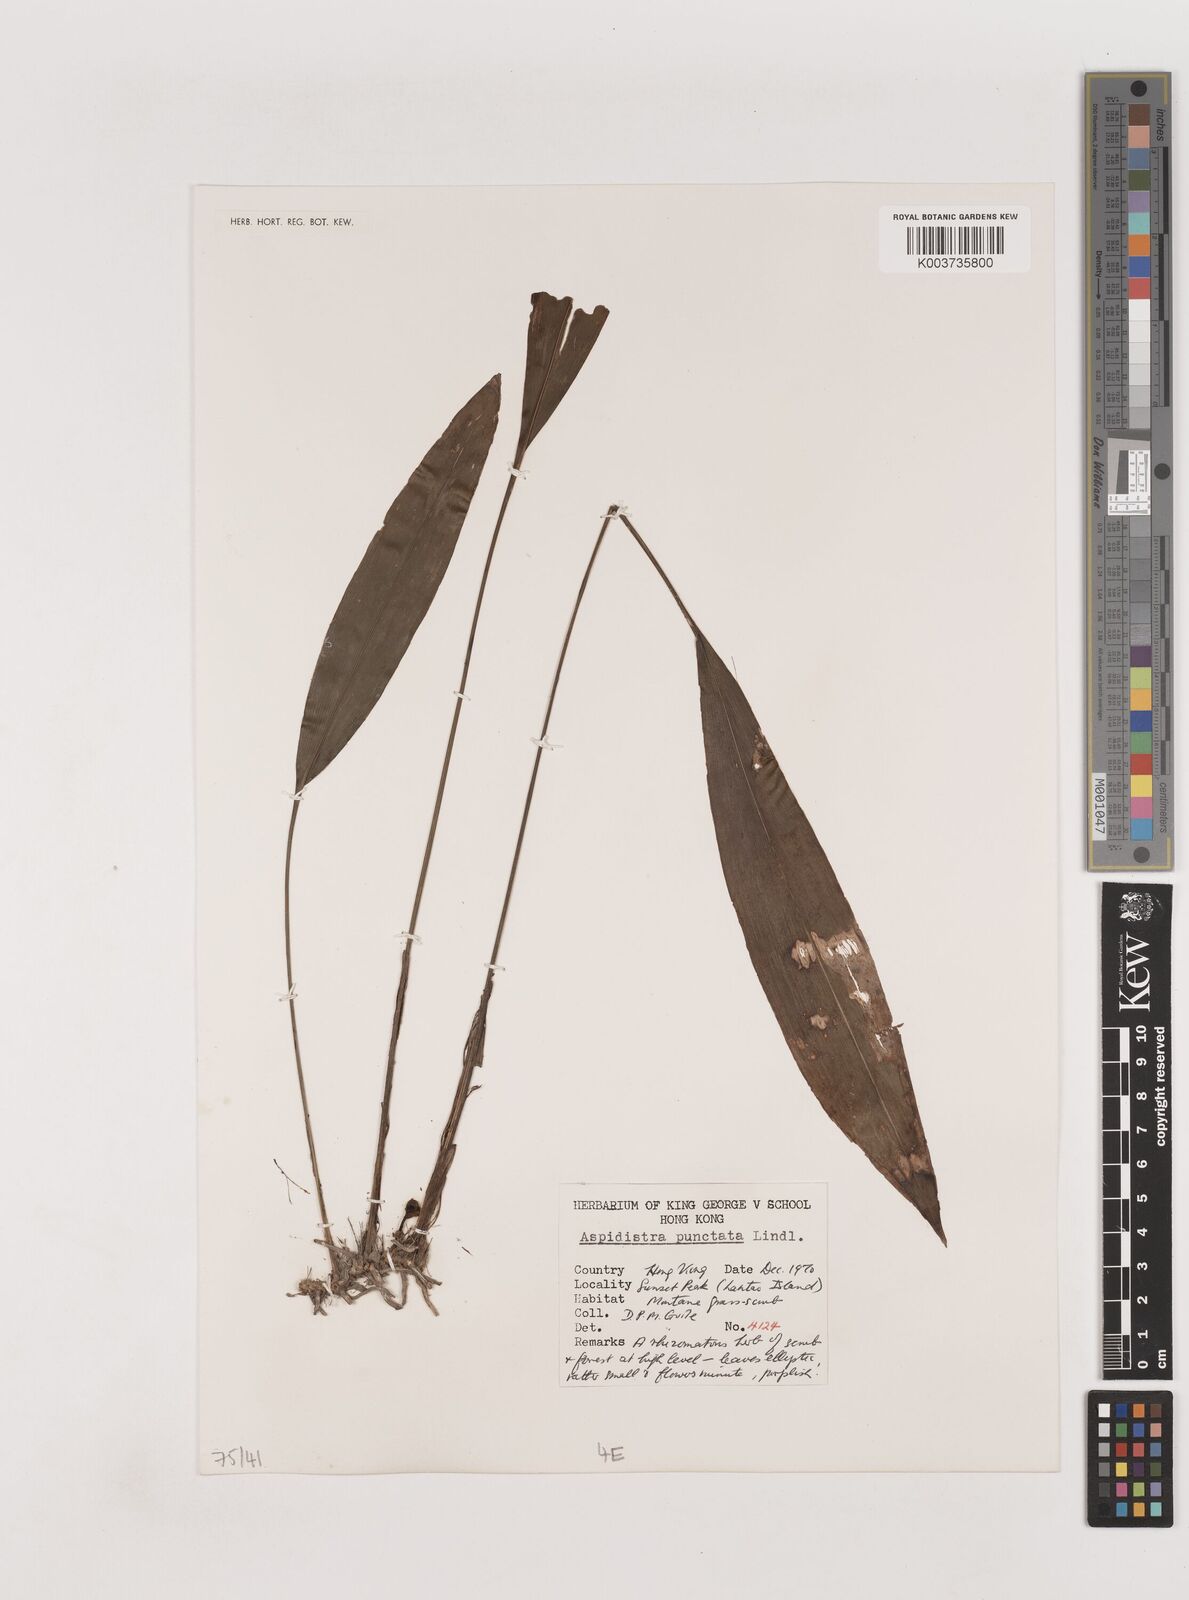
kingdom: Plantae
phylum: Tracheophyta
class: Liliopsida
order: Asparagales
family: Asparagaceae
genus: Aspidistra
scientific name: Aspidistra elatior
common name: Cast-iron-plant
